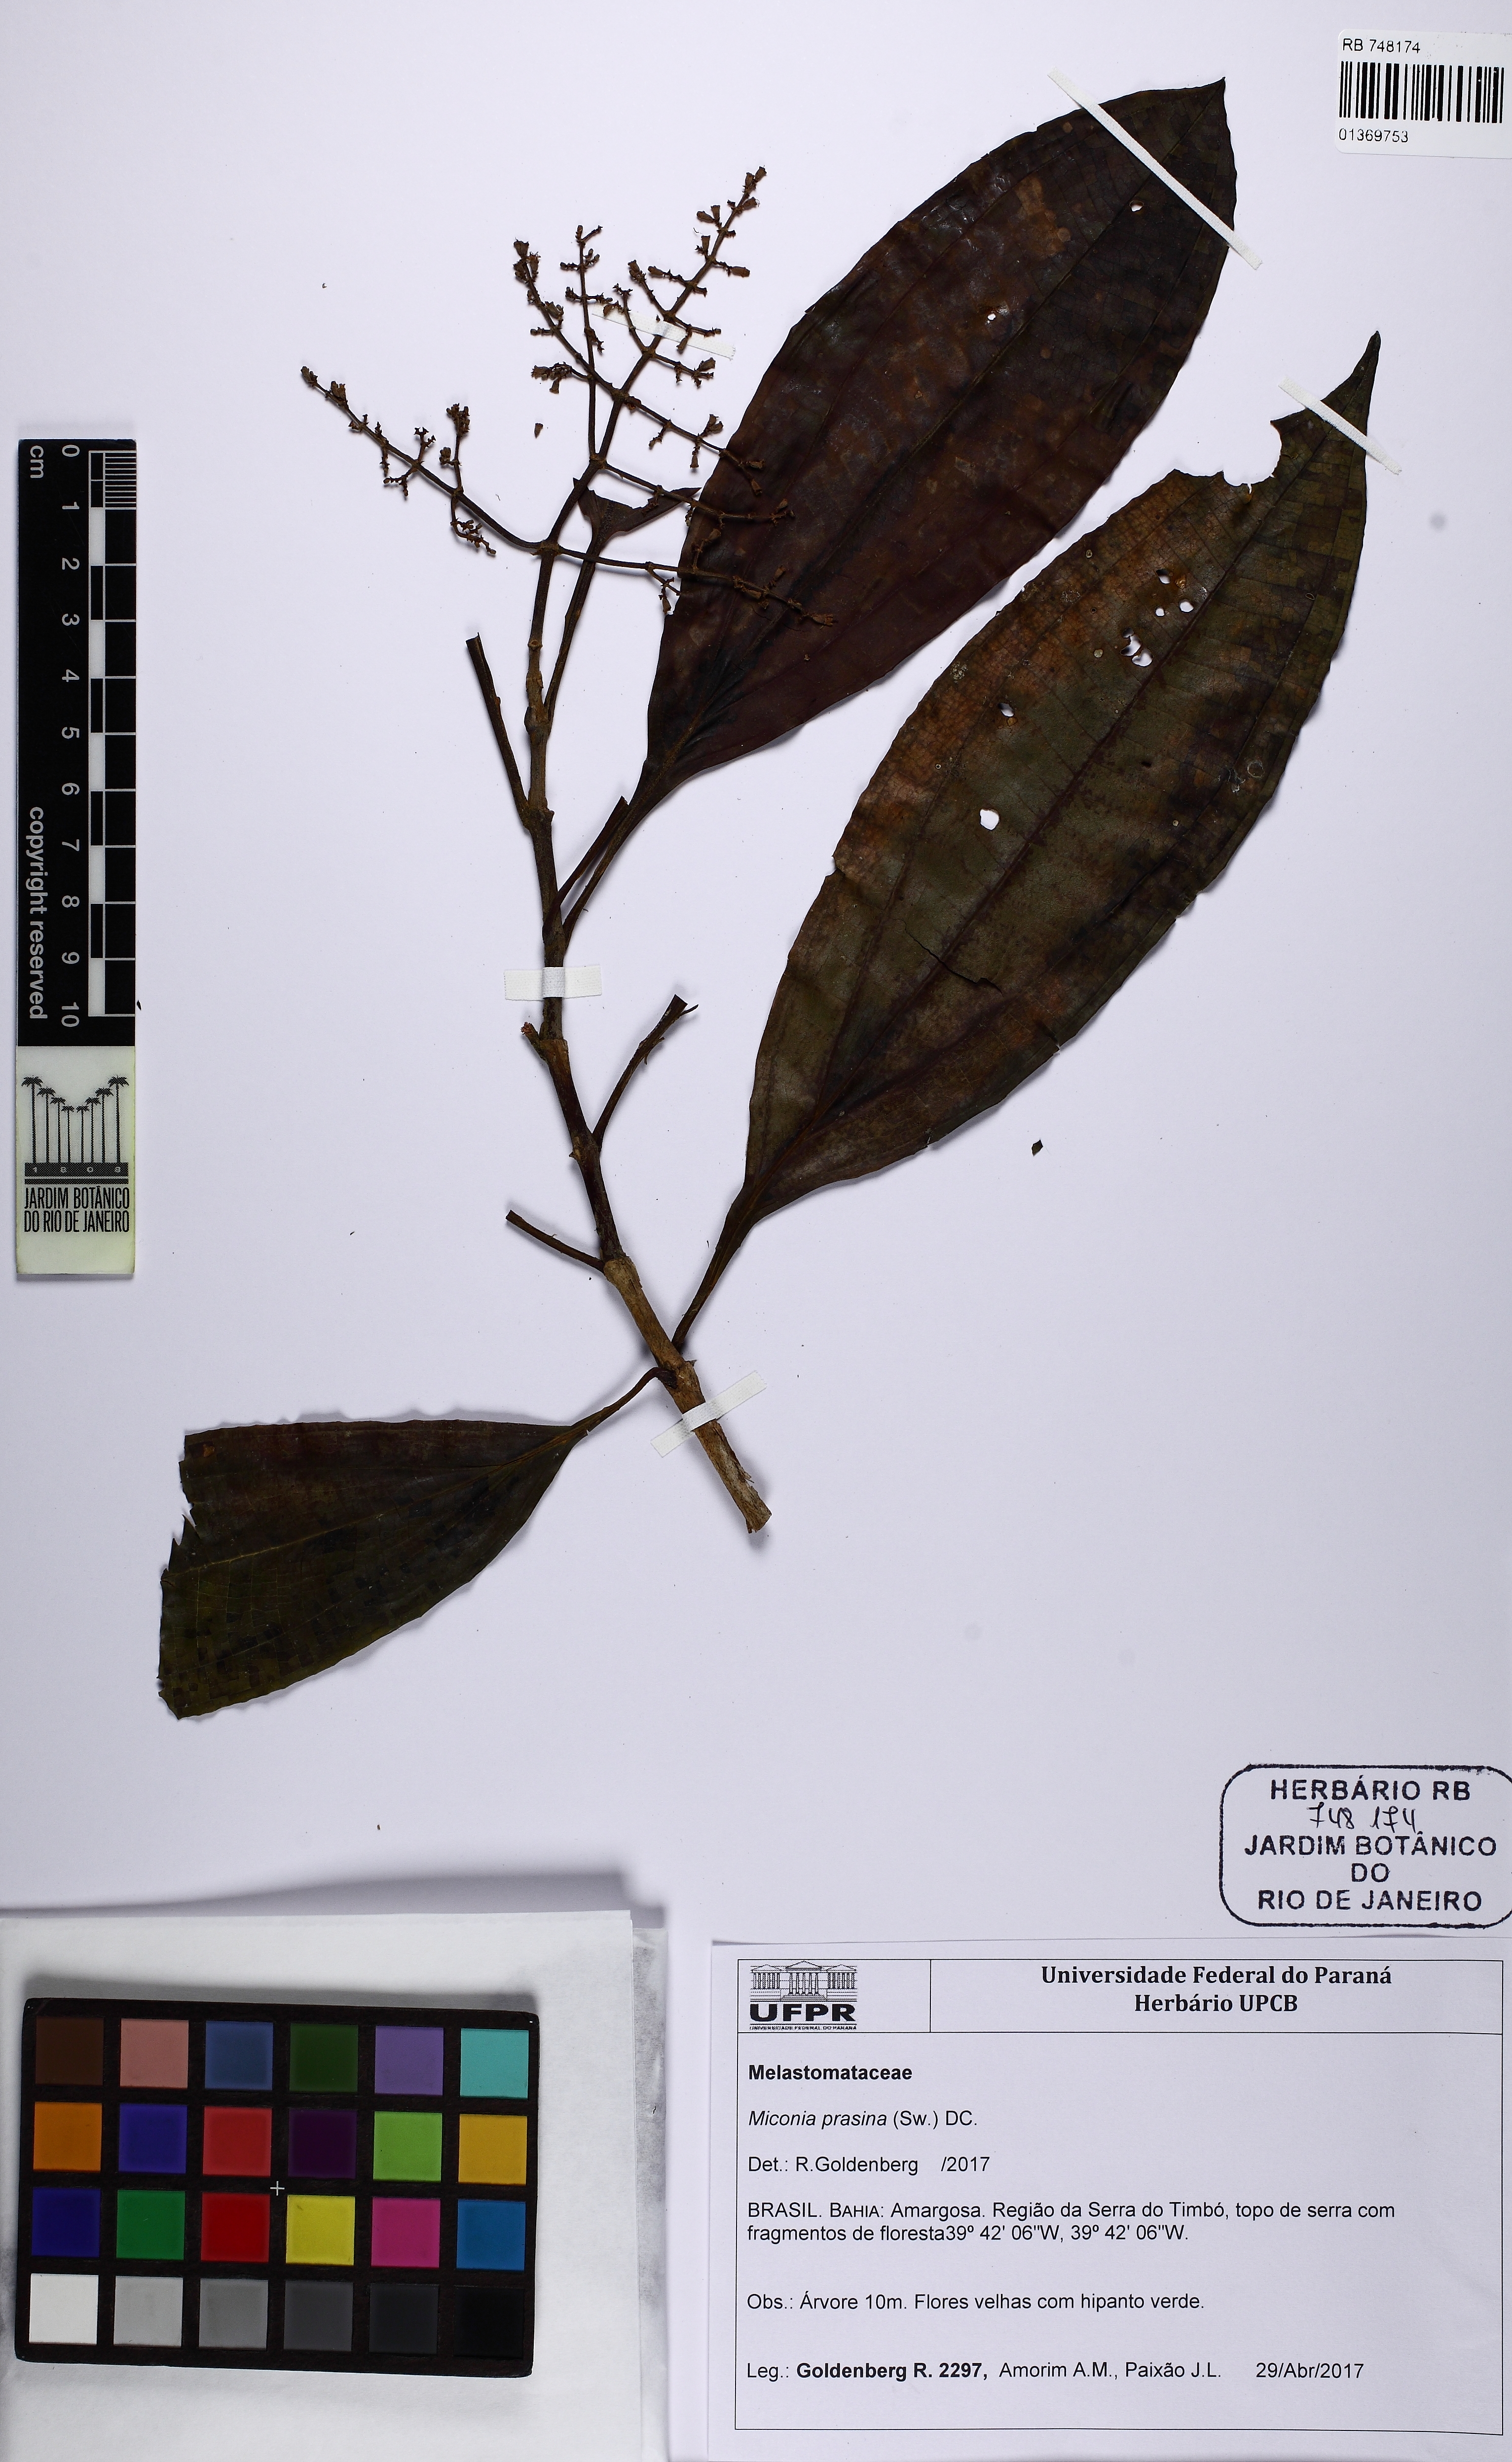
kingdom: Plantae
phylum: Tracheophyta
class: Magnoliopsida
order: Myrtales
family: Melastomataceae
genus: Miconia
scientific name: Miconia prasina
